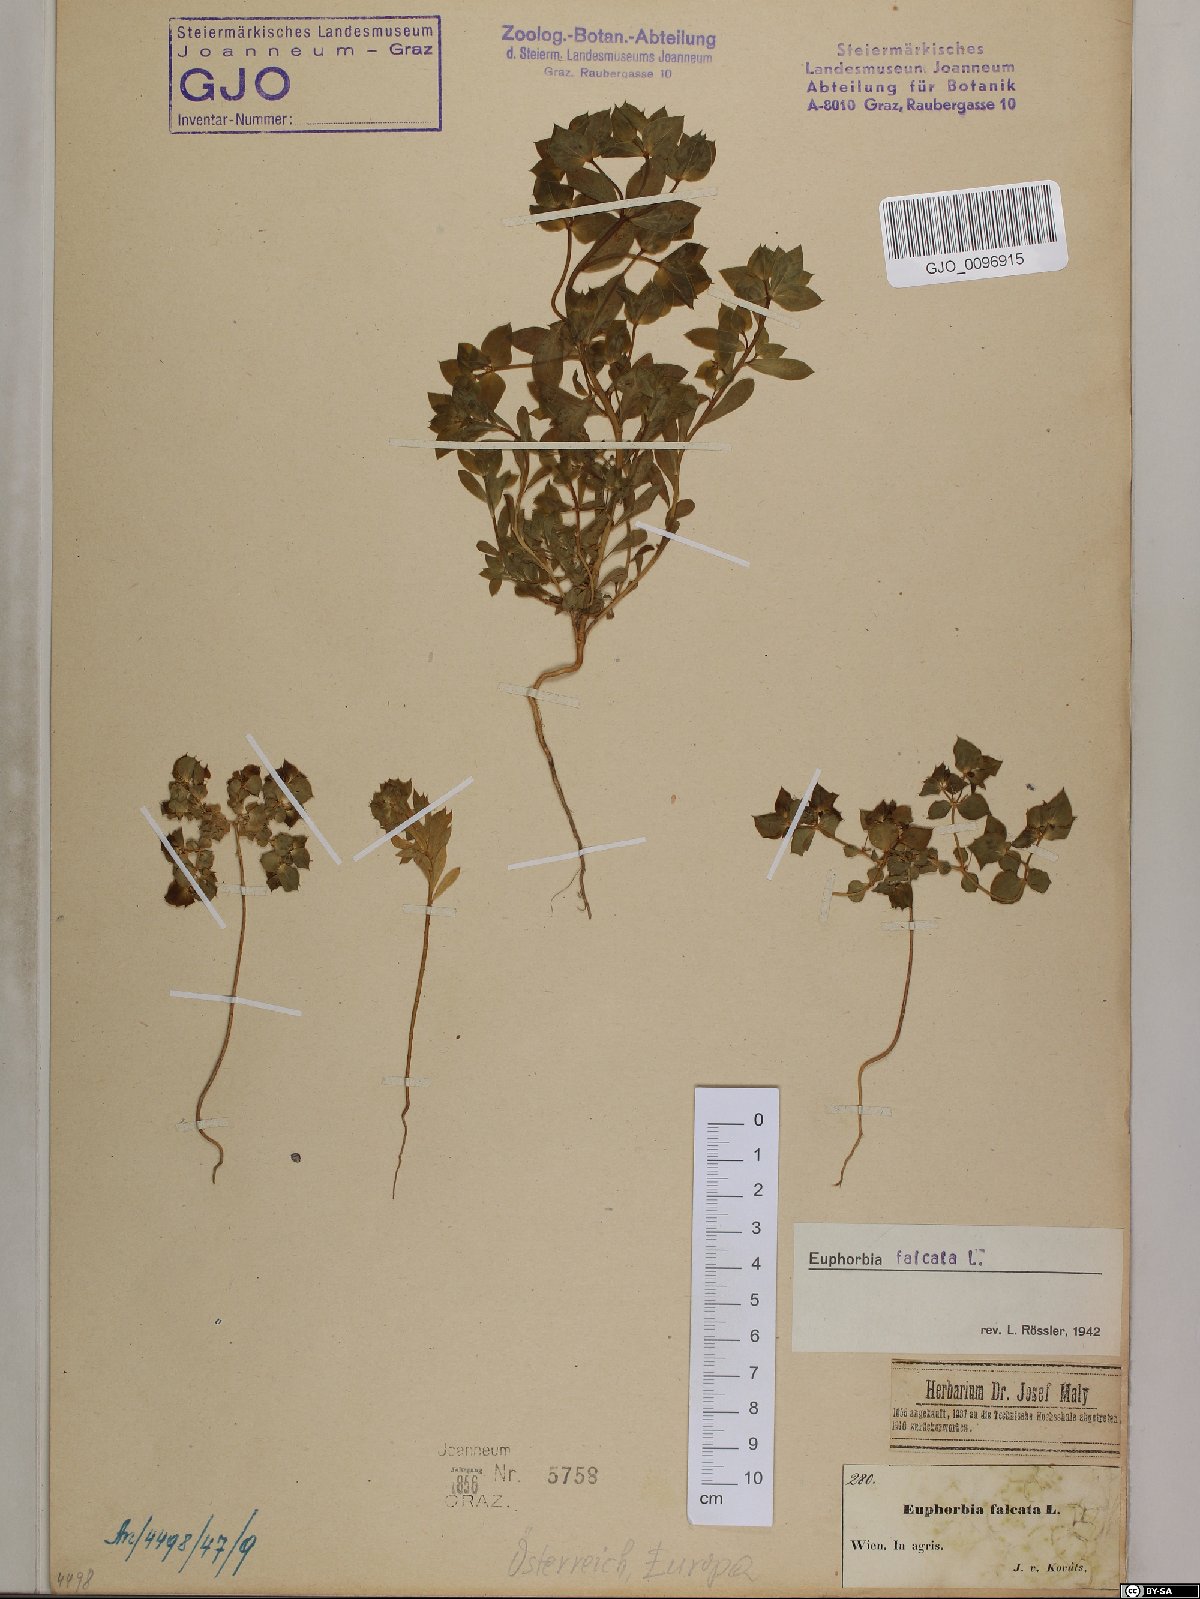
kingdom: Plantae
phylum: Tracheophyta
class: Magnoliopsida
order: Malpighiales
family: Euphorbiaceae
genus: Euphorbia
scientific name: Euphorbia falcata
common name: Sickle spurge
